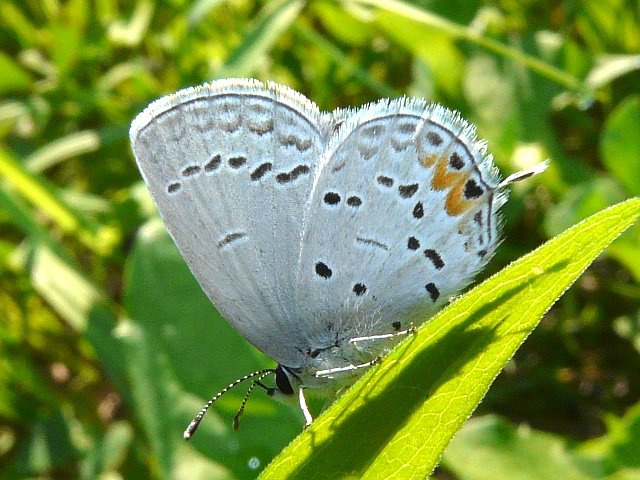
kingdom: Animalia
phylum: Arthropoda
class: Insecta
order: Lepidoptera
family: Lycaenidae
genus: Elkalyce
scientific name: Elkalyce comyntas
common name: Eastern Tailed-Blue
